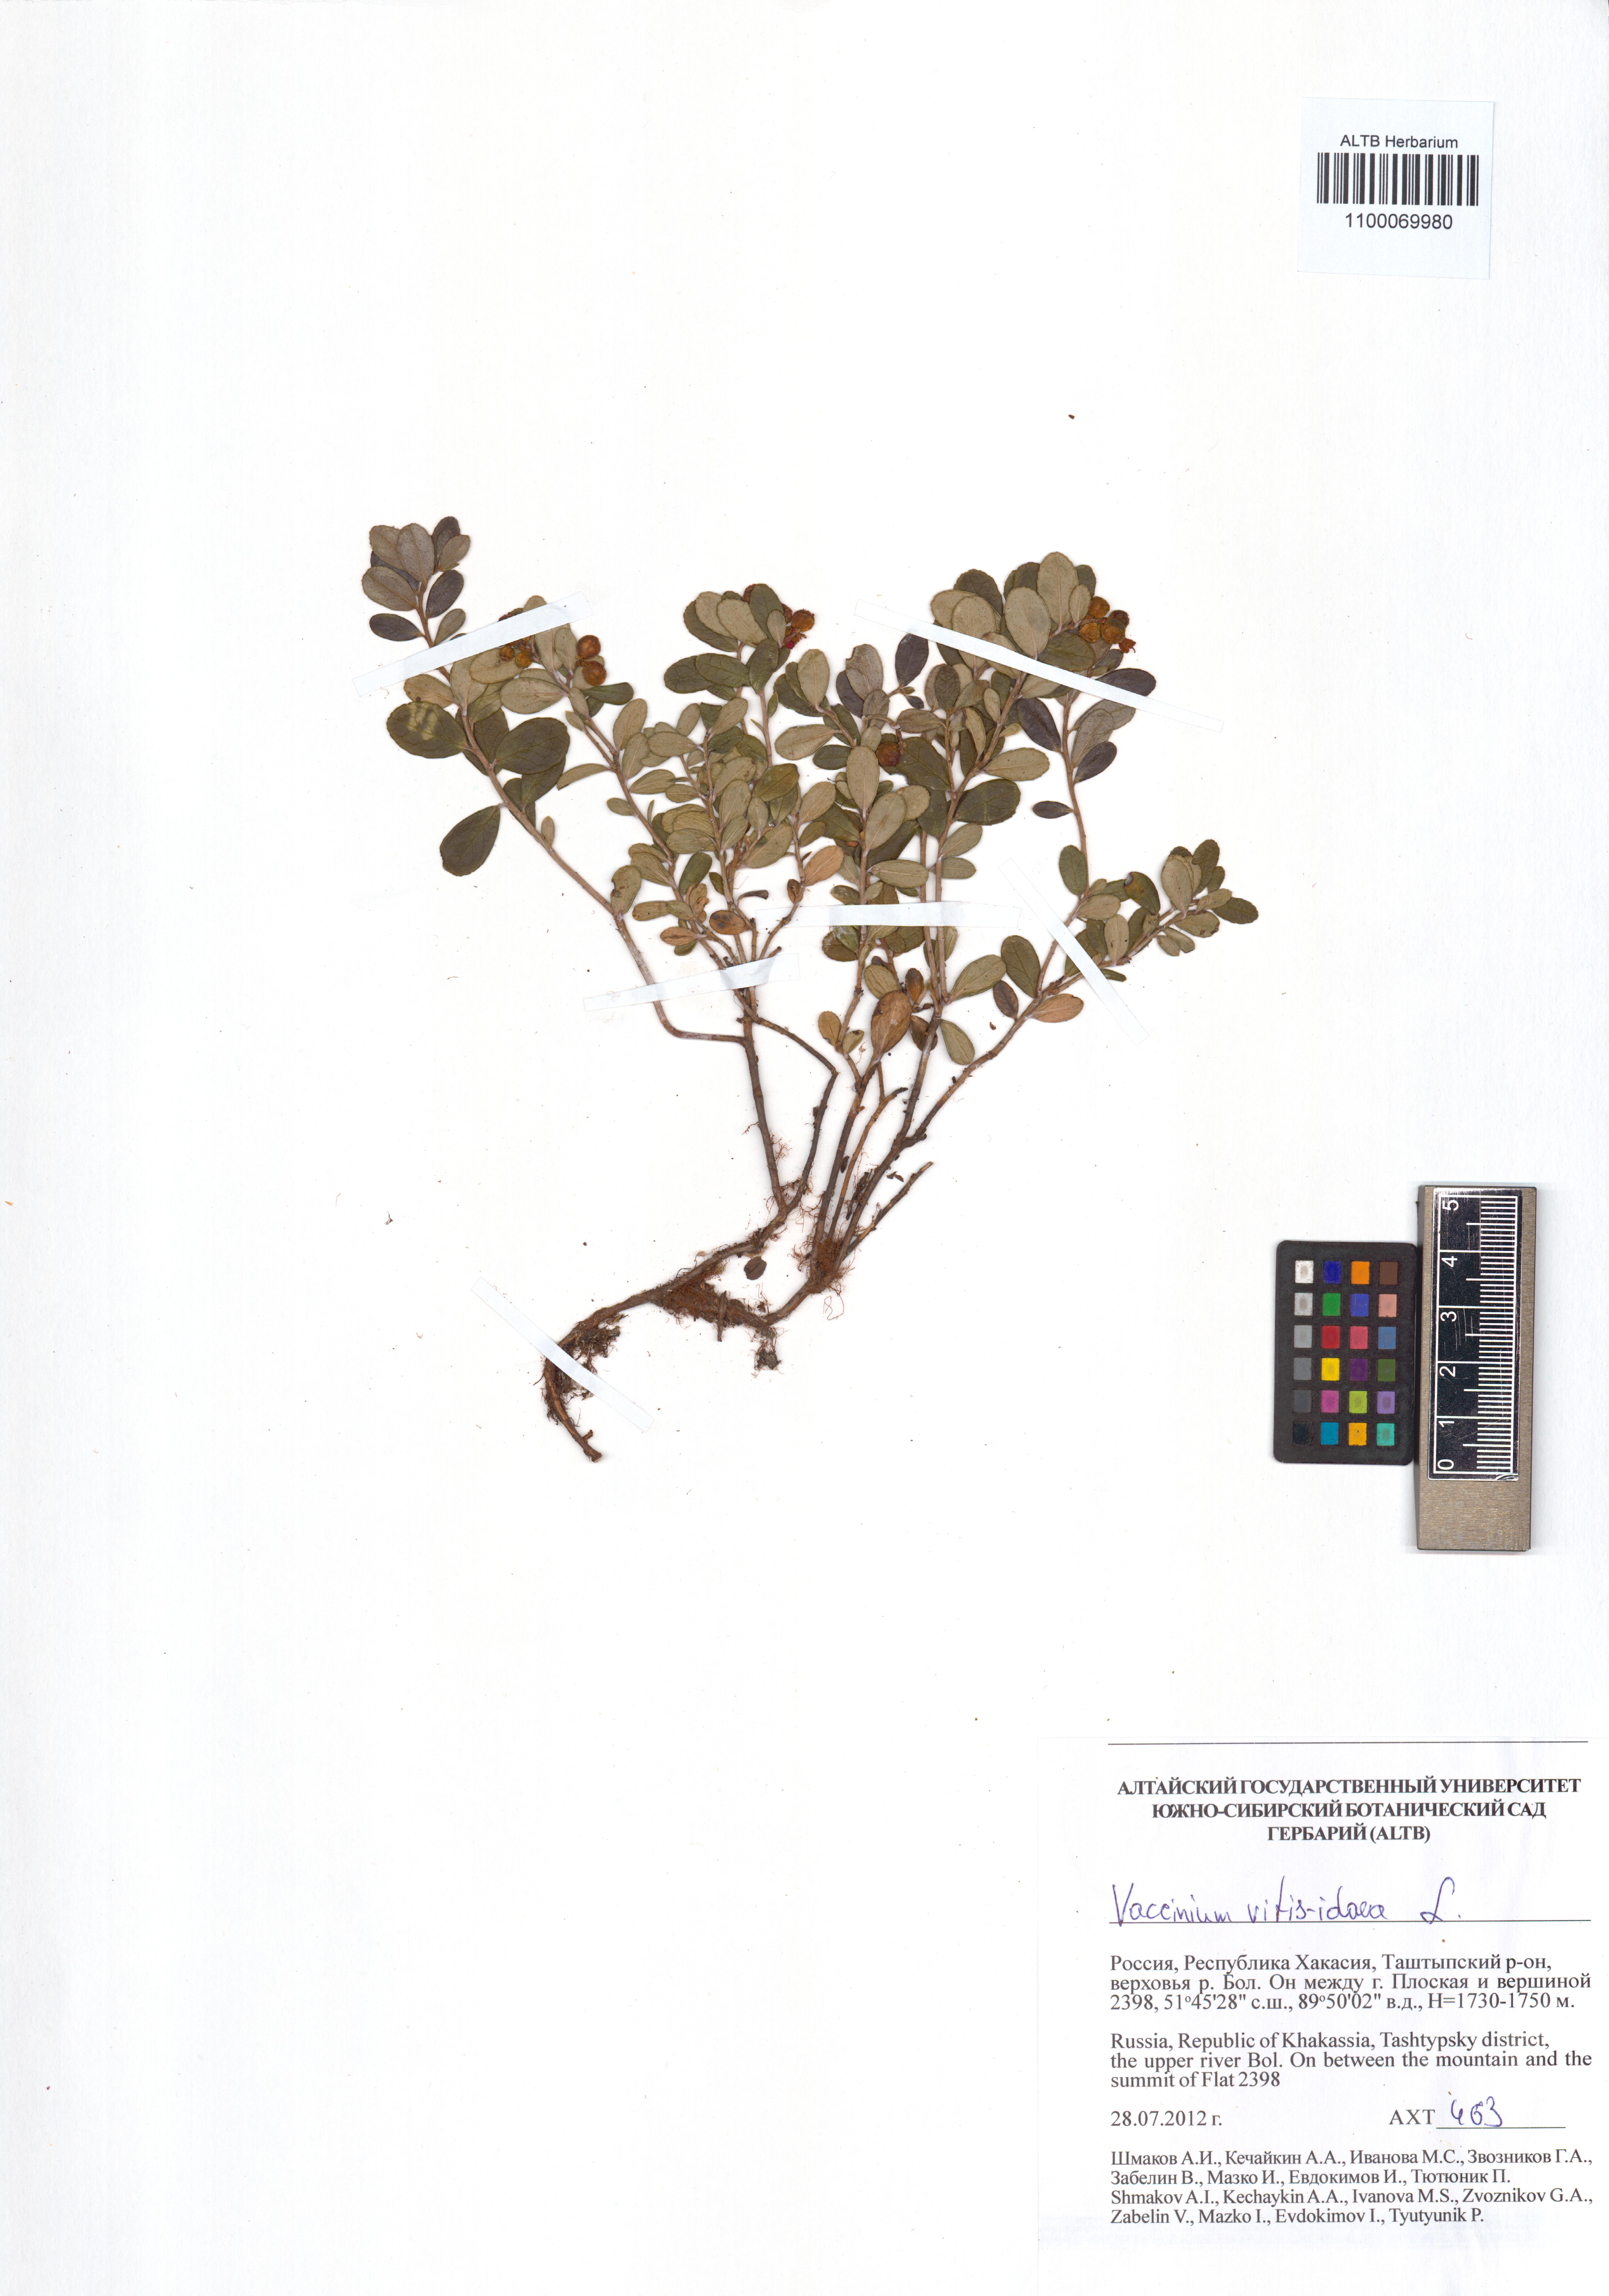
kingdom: Plantae
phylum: Tracheophyta
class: Magnoliopsida
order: Ericales
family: Ericaceae
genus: Vaccinium
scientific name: Vaccinium vitis-idaea
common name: Cowberry
